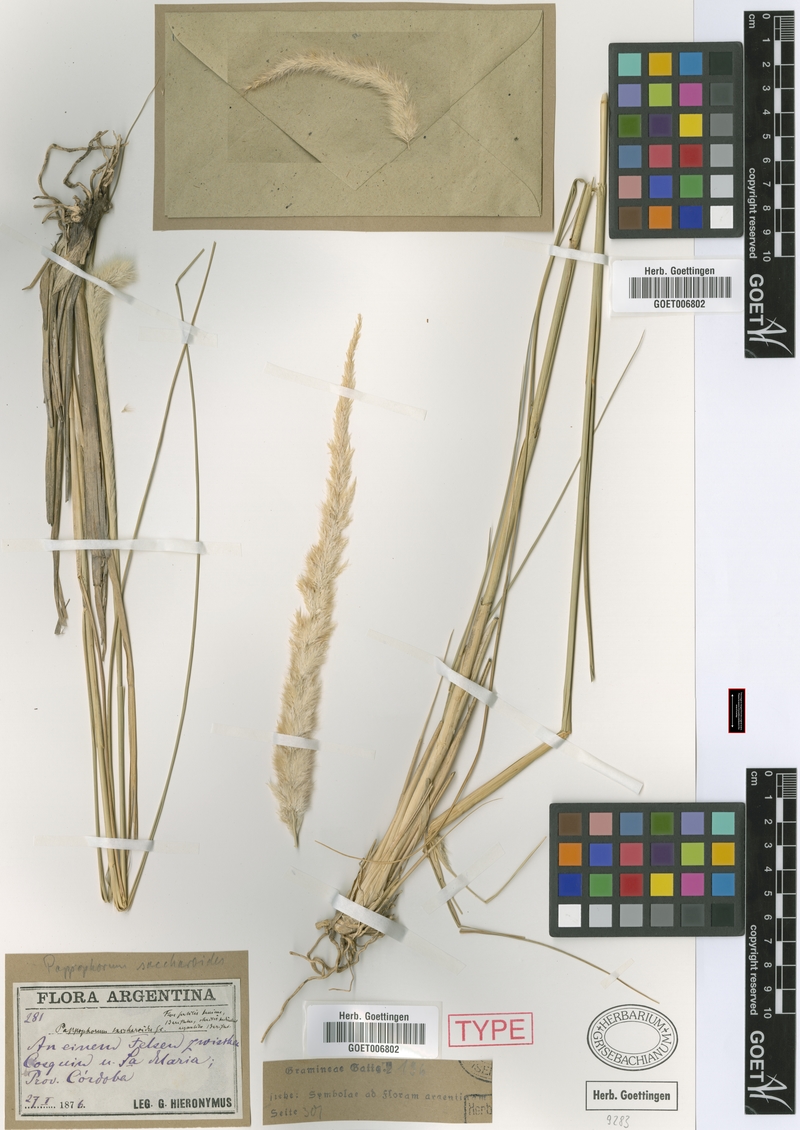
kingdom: Plantae
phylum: Tracheophyta
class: Liliopsida
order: Poales
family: Poaceae
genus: Pappophorum
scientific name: Pappophorum pappiferum
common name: Crabgrass
